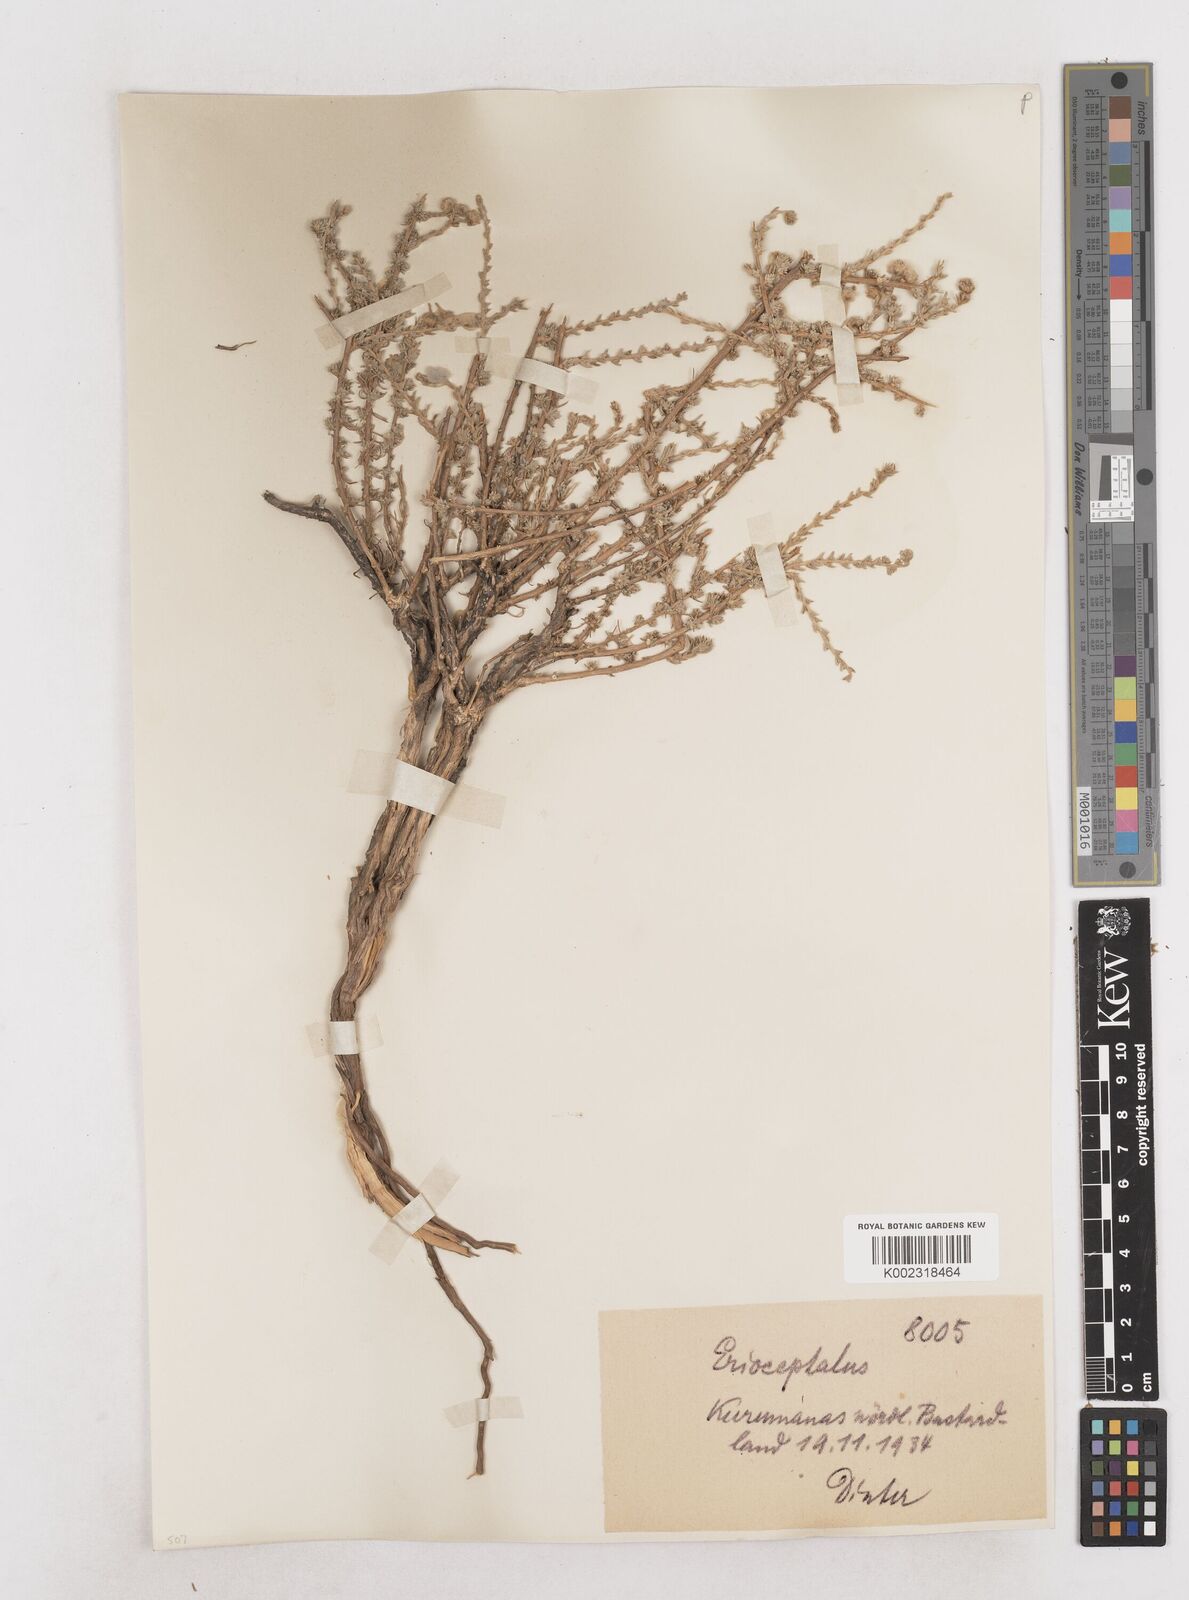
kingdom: Plantae
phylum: Tracheophyta
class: Magnoliopsida
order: Asterales
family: Asteraceae
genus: Eriocephalus
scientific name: Eriocephalus
